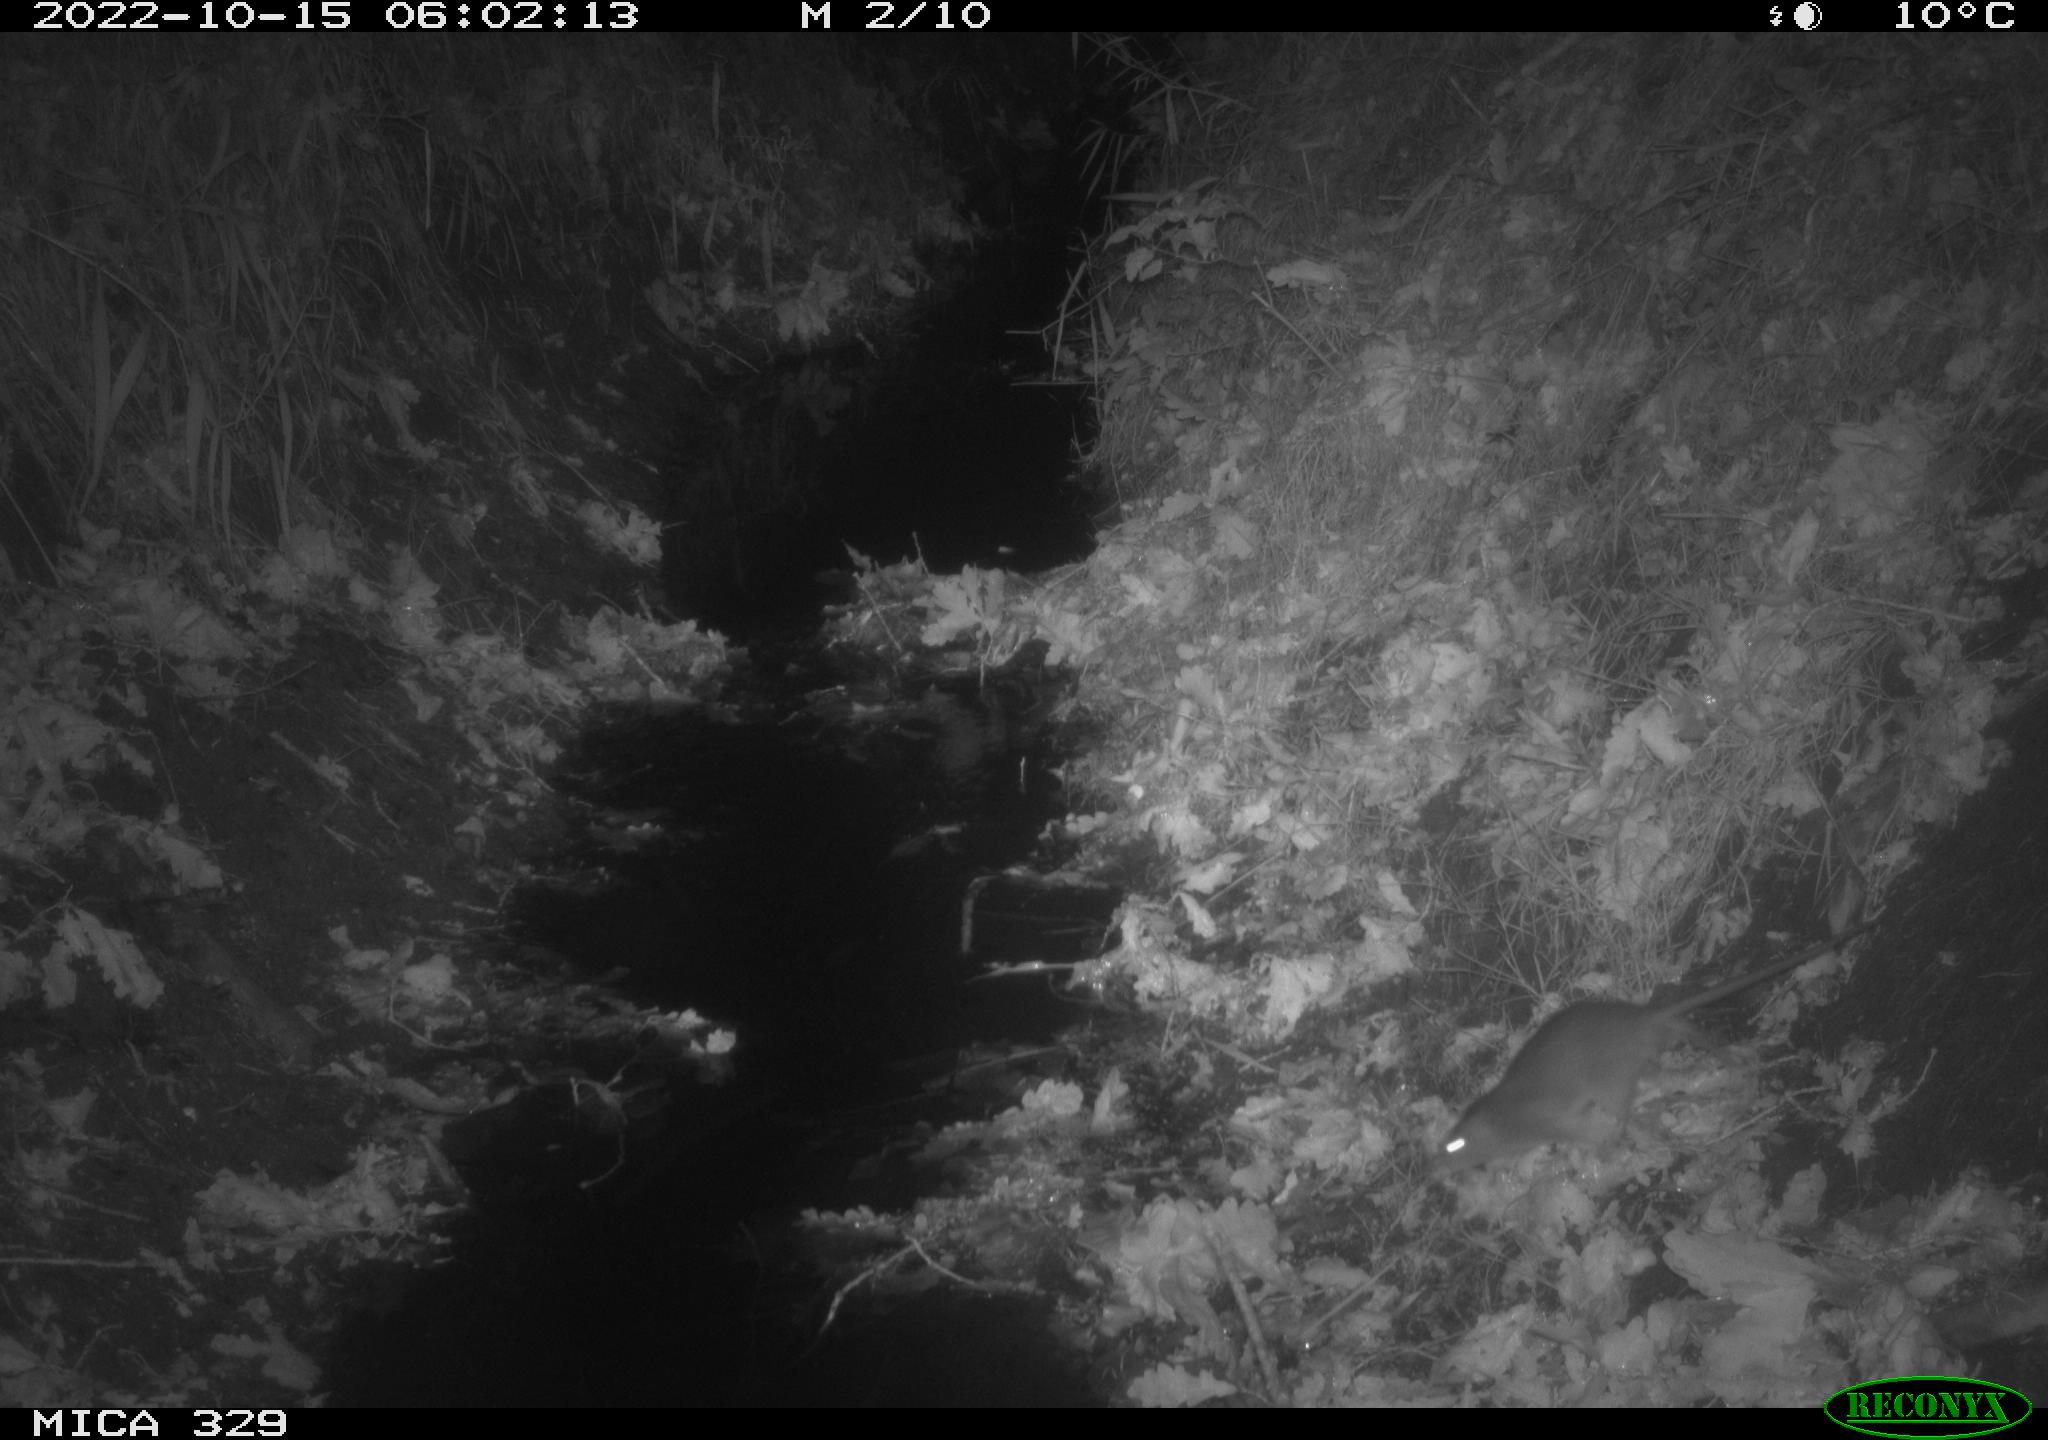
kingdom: Animalia
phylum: Chordata
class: Mammalia
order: Rodentia
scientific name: Rodentia
